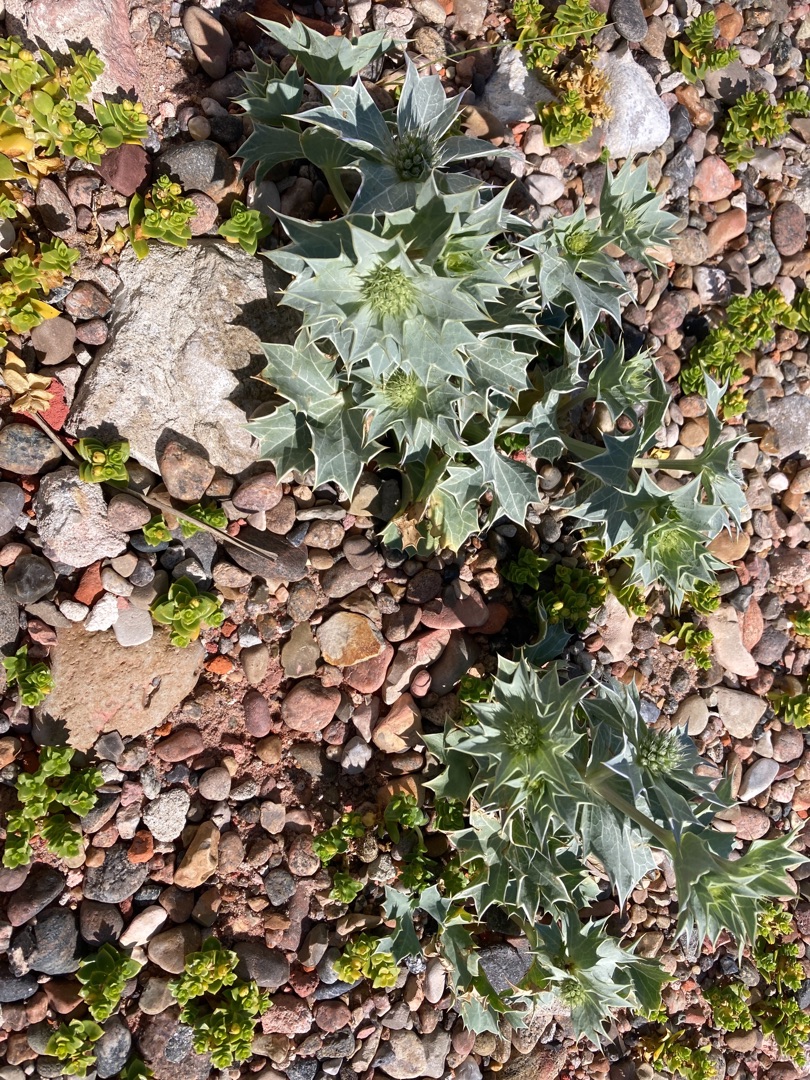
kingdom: Plantae
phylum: Tracheophyta
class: Magnoliopsida
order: Apiales
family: Apiaceae
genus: Eryngium
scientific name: Eryngium maritimum
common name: Strand-mandstro
